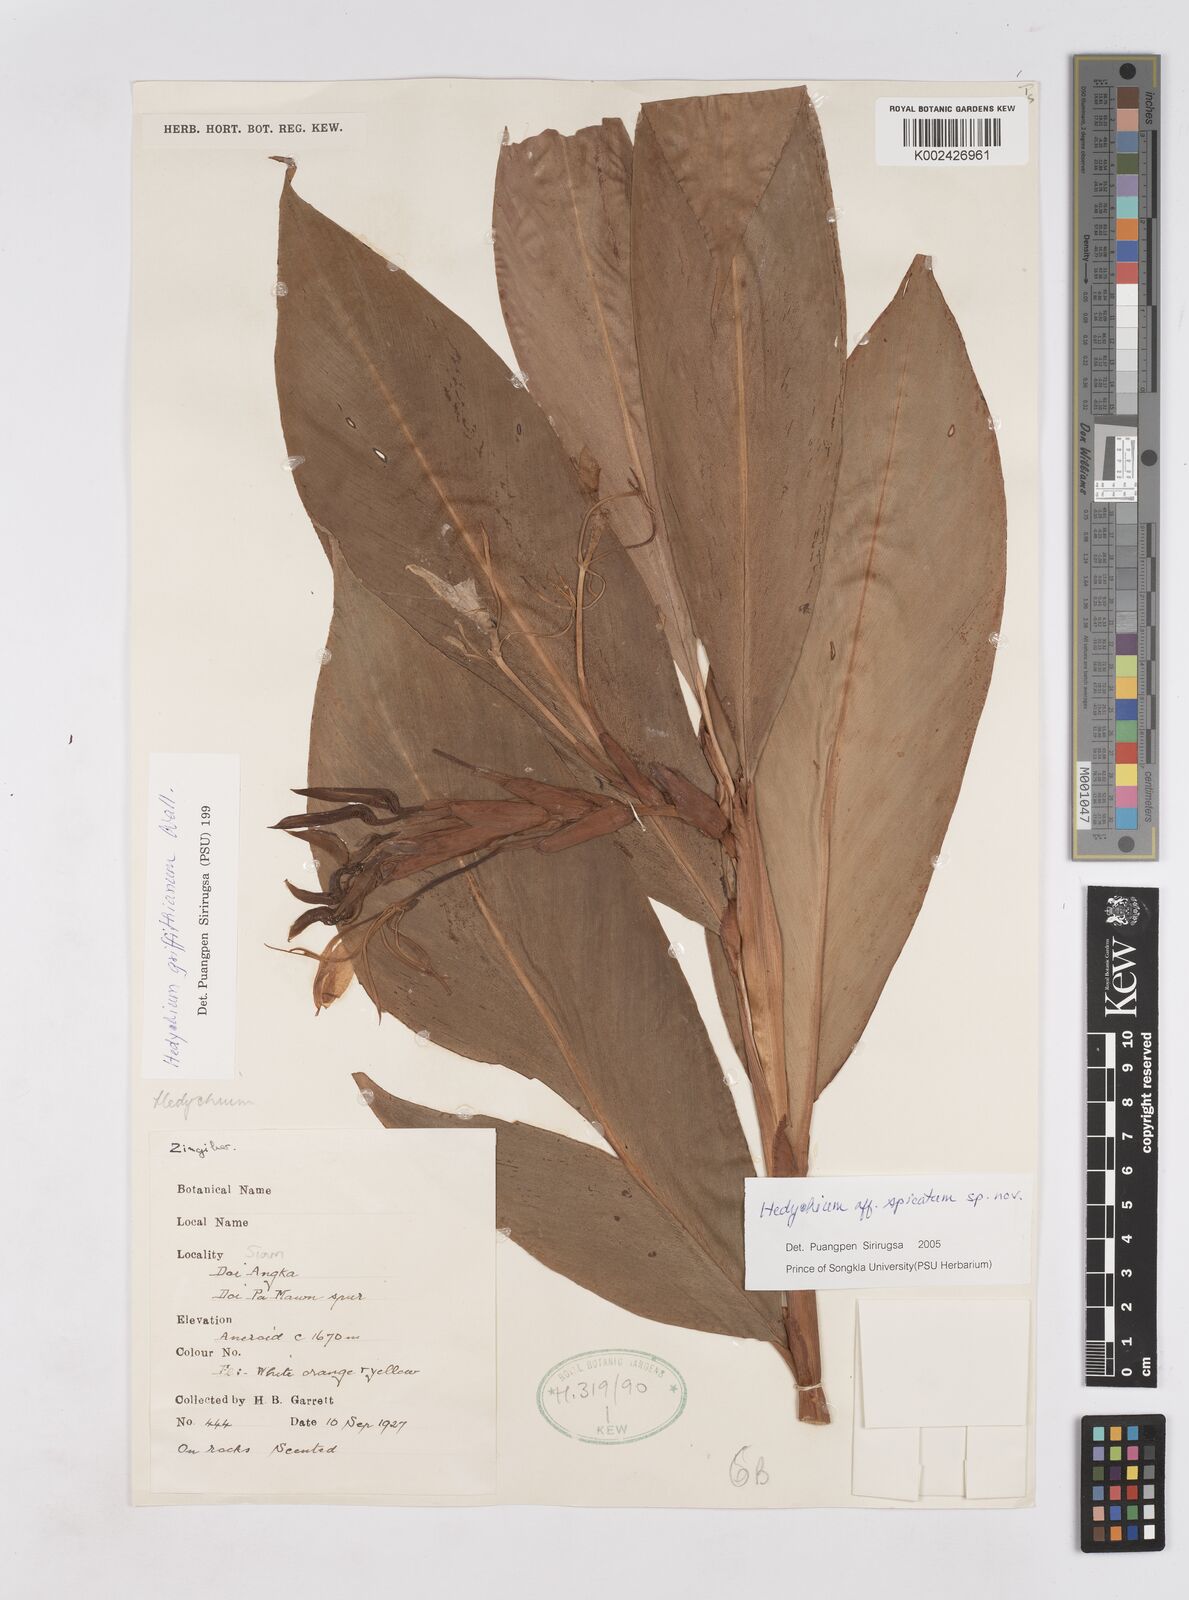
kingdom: Plantae
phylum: Tracheophyta
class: Liliopsida
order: Zingiberales
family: Zingiberaceae
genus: Hedychium
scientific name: Hedychium spicatum
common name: Spiked ginger-lily
